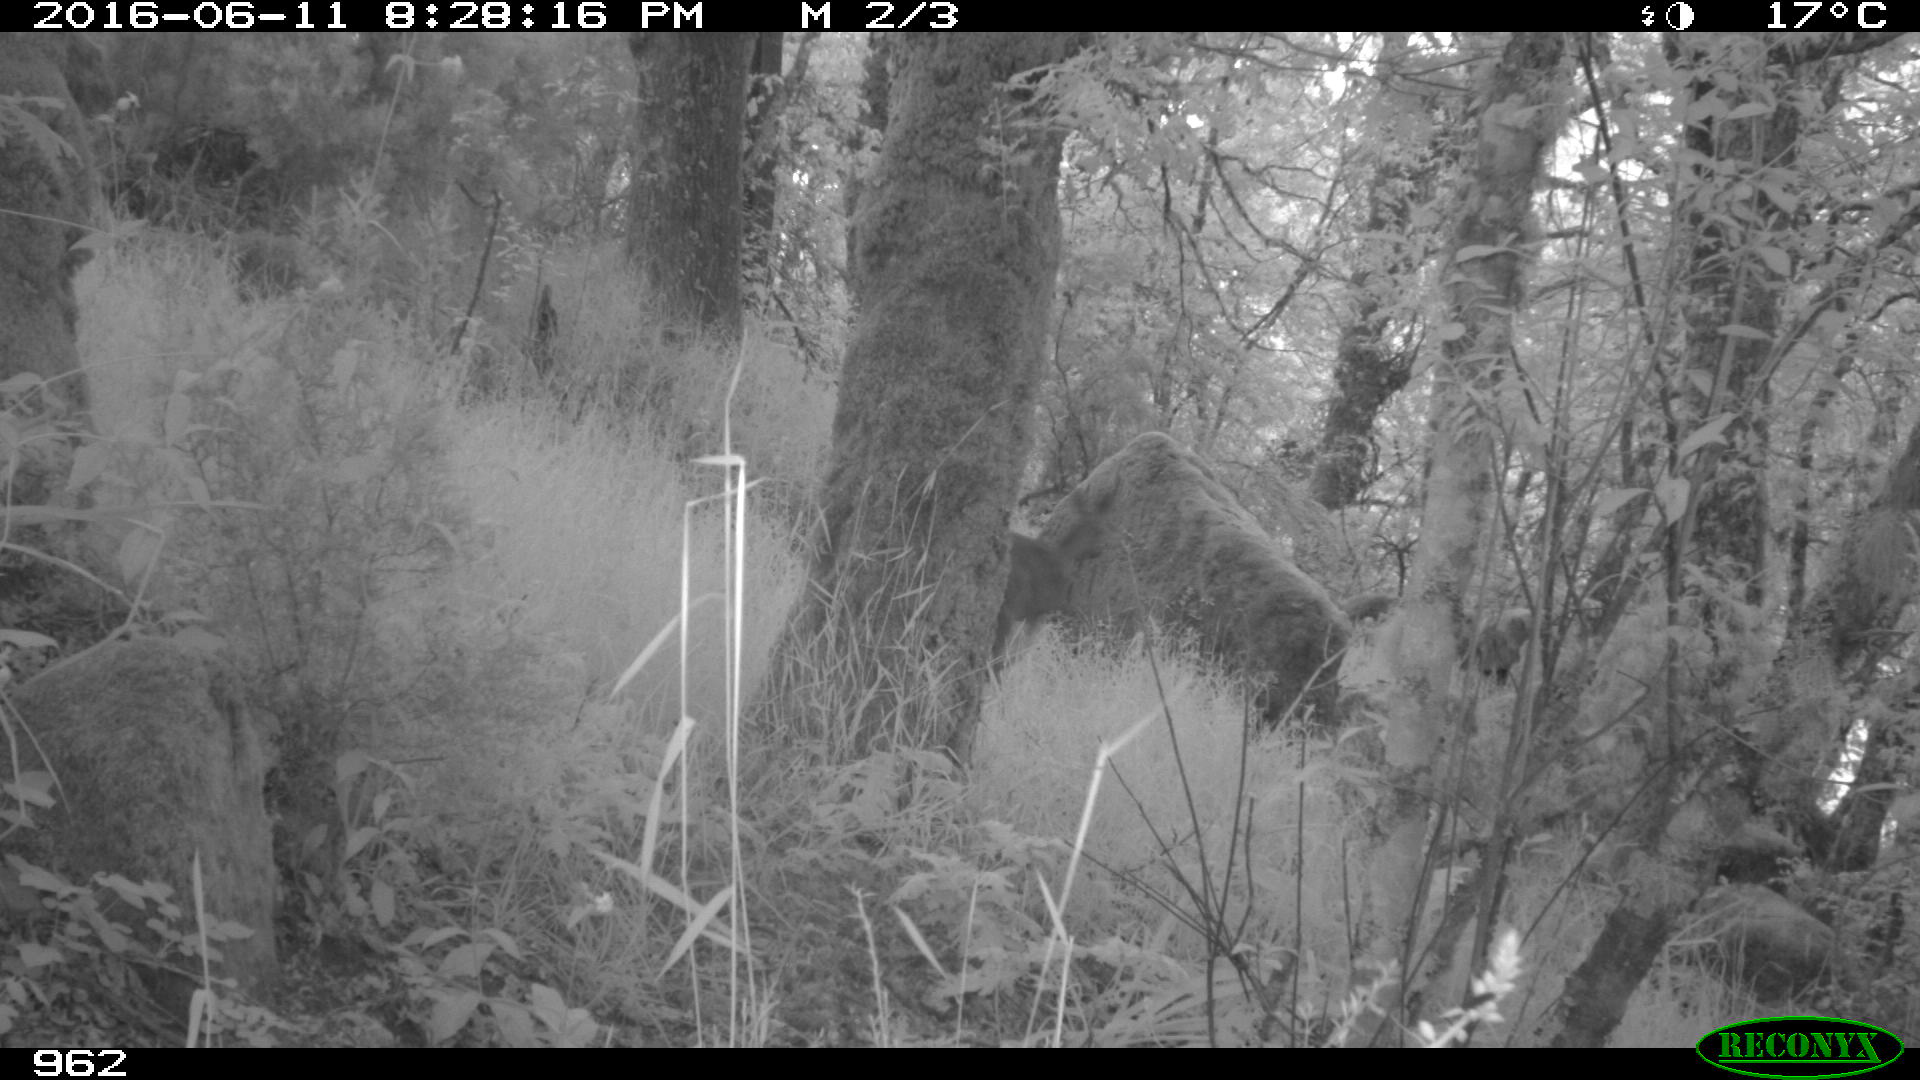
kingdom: Animalia
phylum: Chordata
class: Mammalia
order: Artiodactyla
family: Cervidae
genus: Capreolus
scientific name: Capreolus capreolus
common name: Western roe deer
